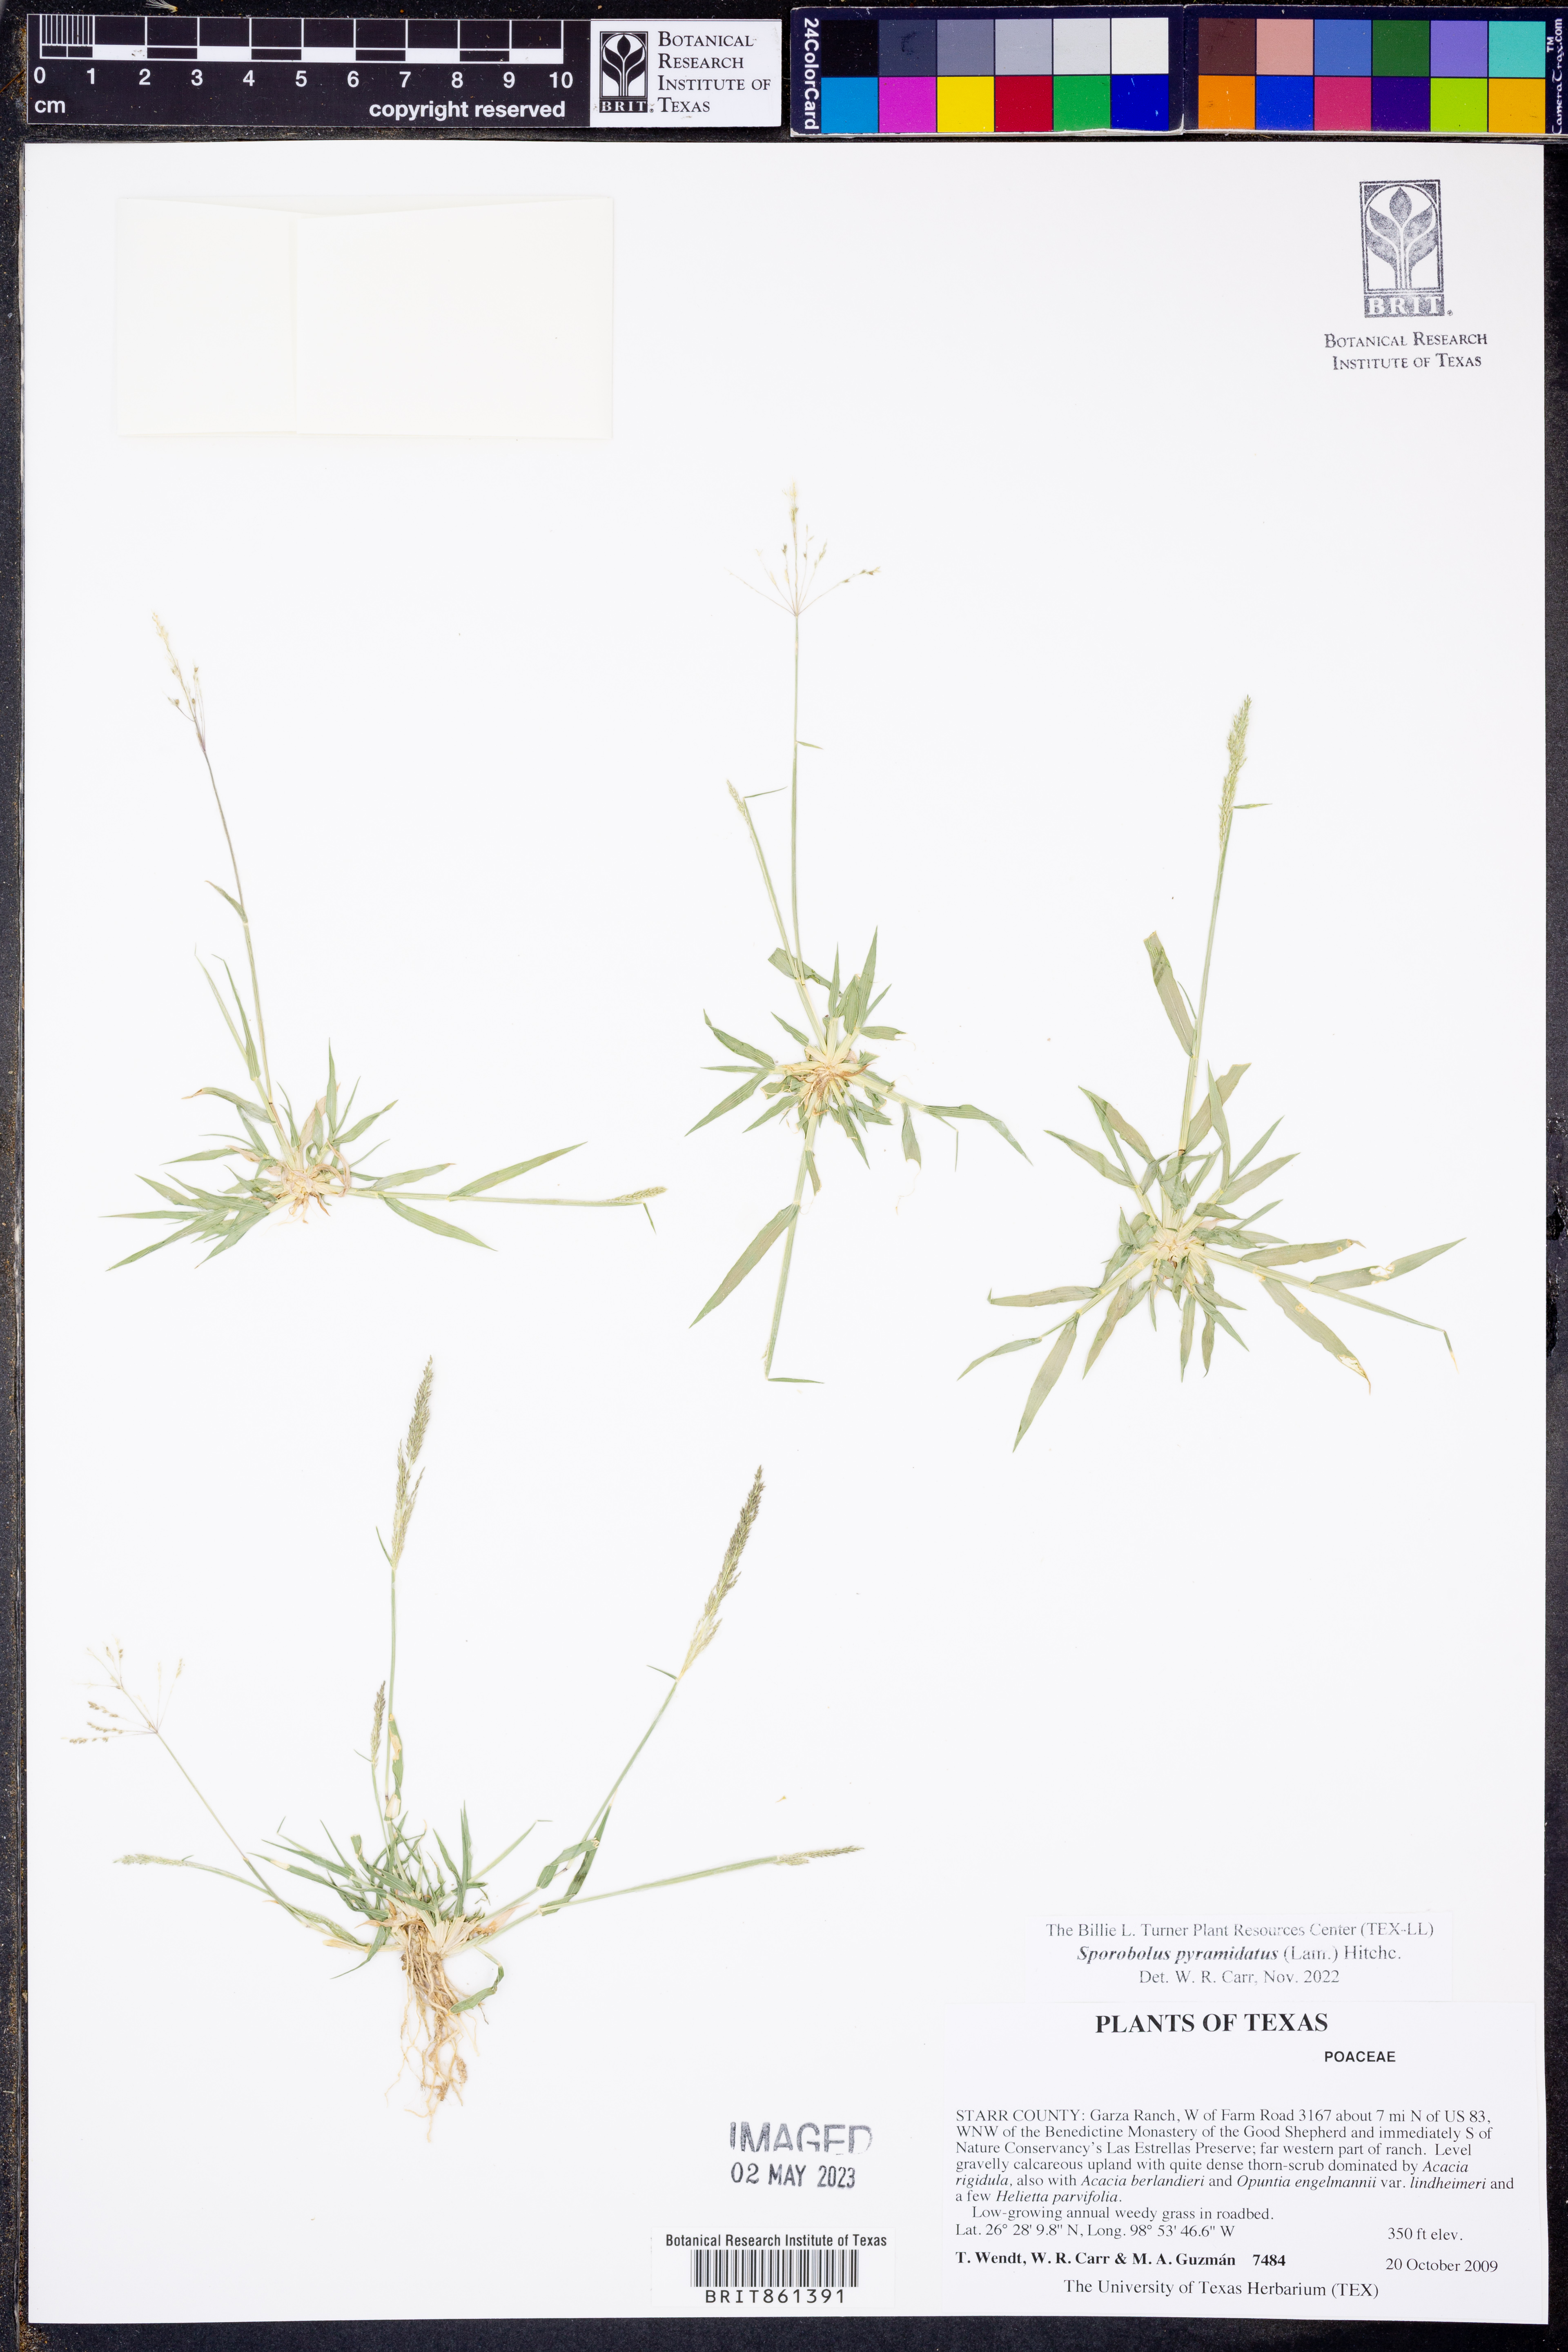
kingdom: Plantae
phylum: Tracheophyta
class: Liliopsida
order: Poales
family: Poaceae
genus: Sporobolus
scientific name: Sporobolus pyramidatus
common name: Whorled dropseed
